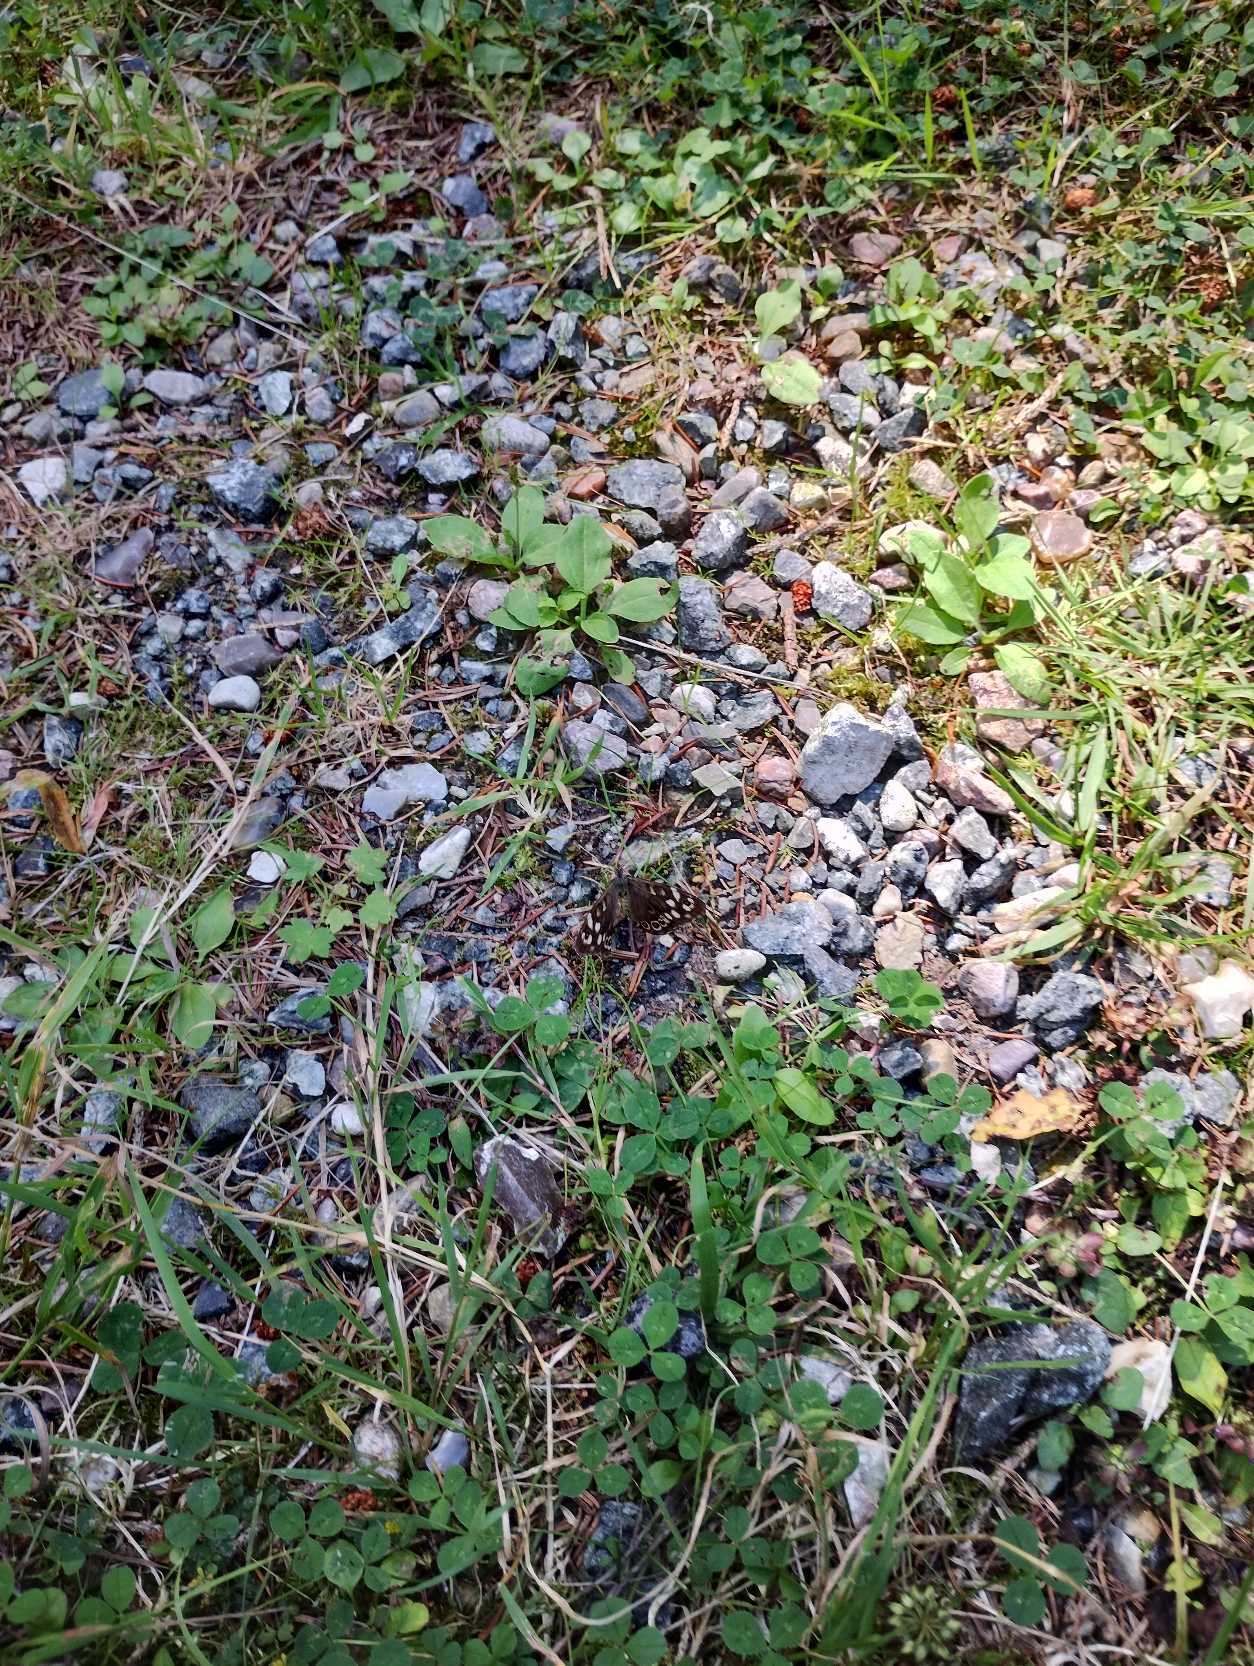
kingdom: Animalia
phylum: Arthropoda
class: Insecta
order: Lepidoptera
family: Nymphalidae
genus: Pararge
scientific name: Pararge aegeria
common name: Skovrandøje
